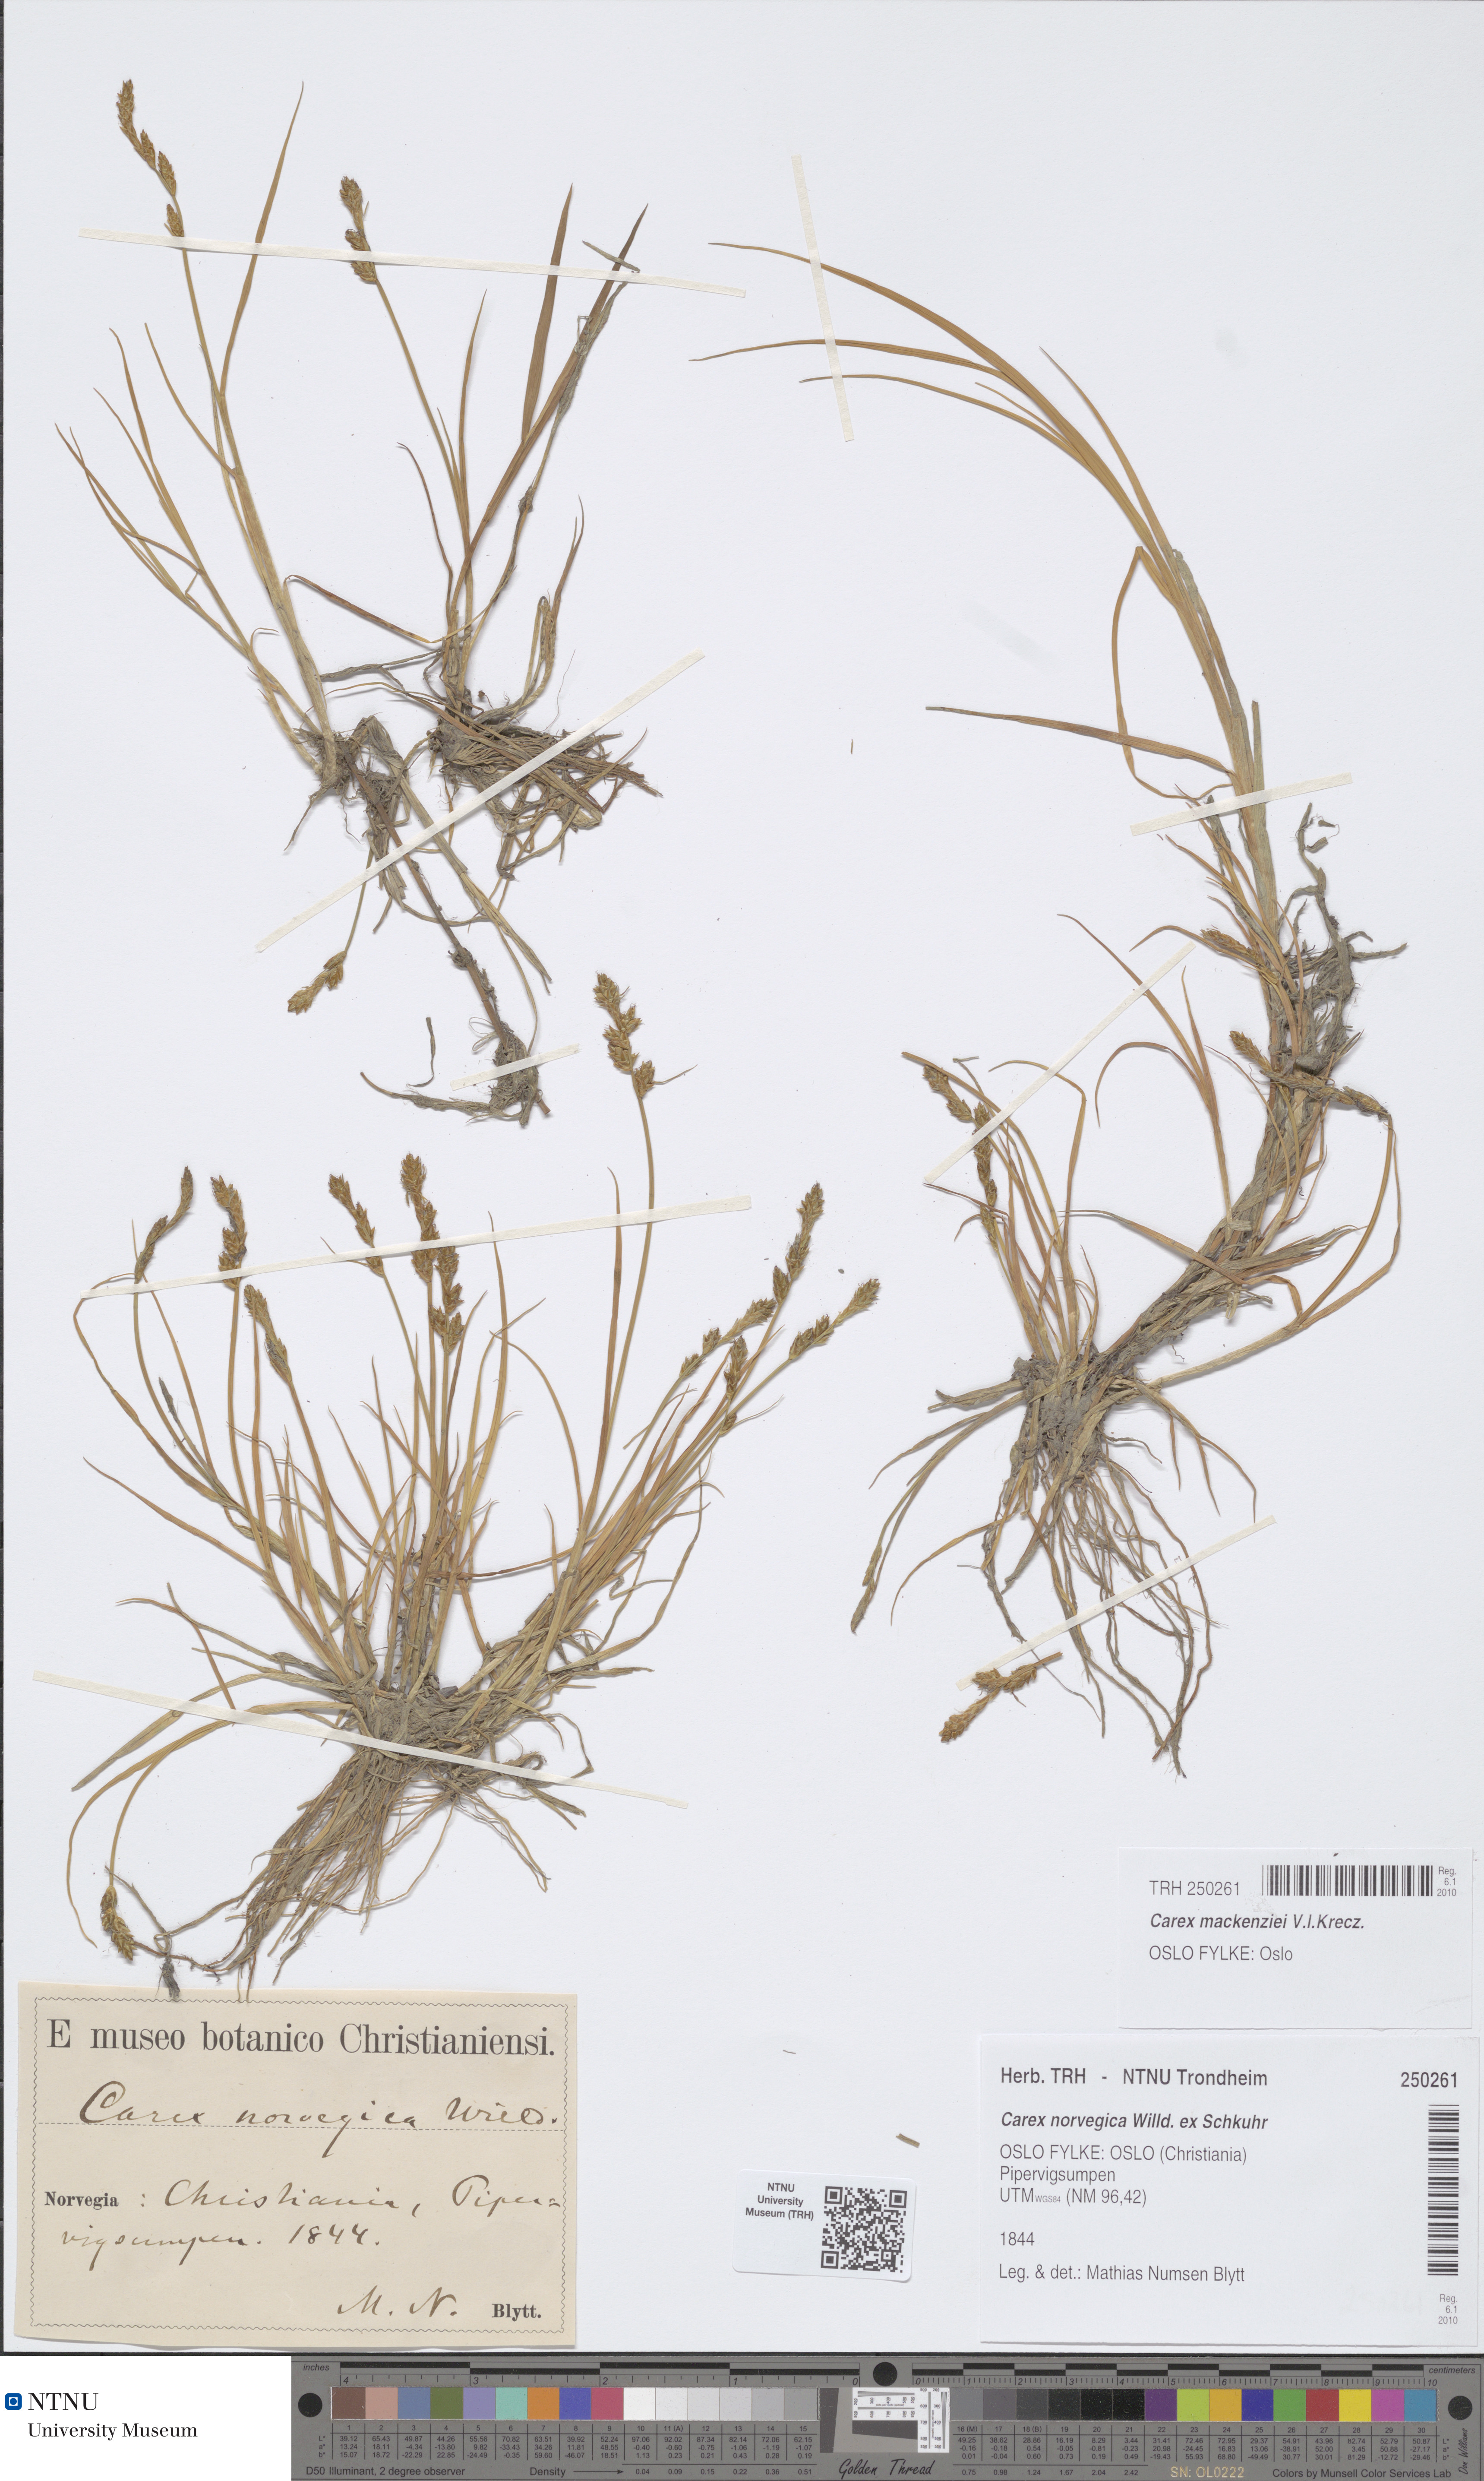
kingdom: Plantae
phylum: Tracheophyta
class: Liliopsida
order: Poales
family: Cyperaceae
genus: Carex
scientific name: Carex mackenziei
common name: Mackenzie's sedge
